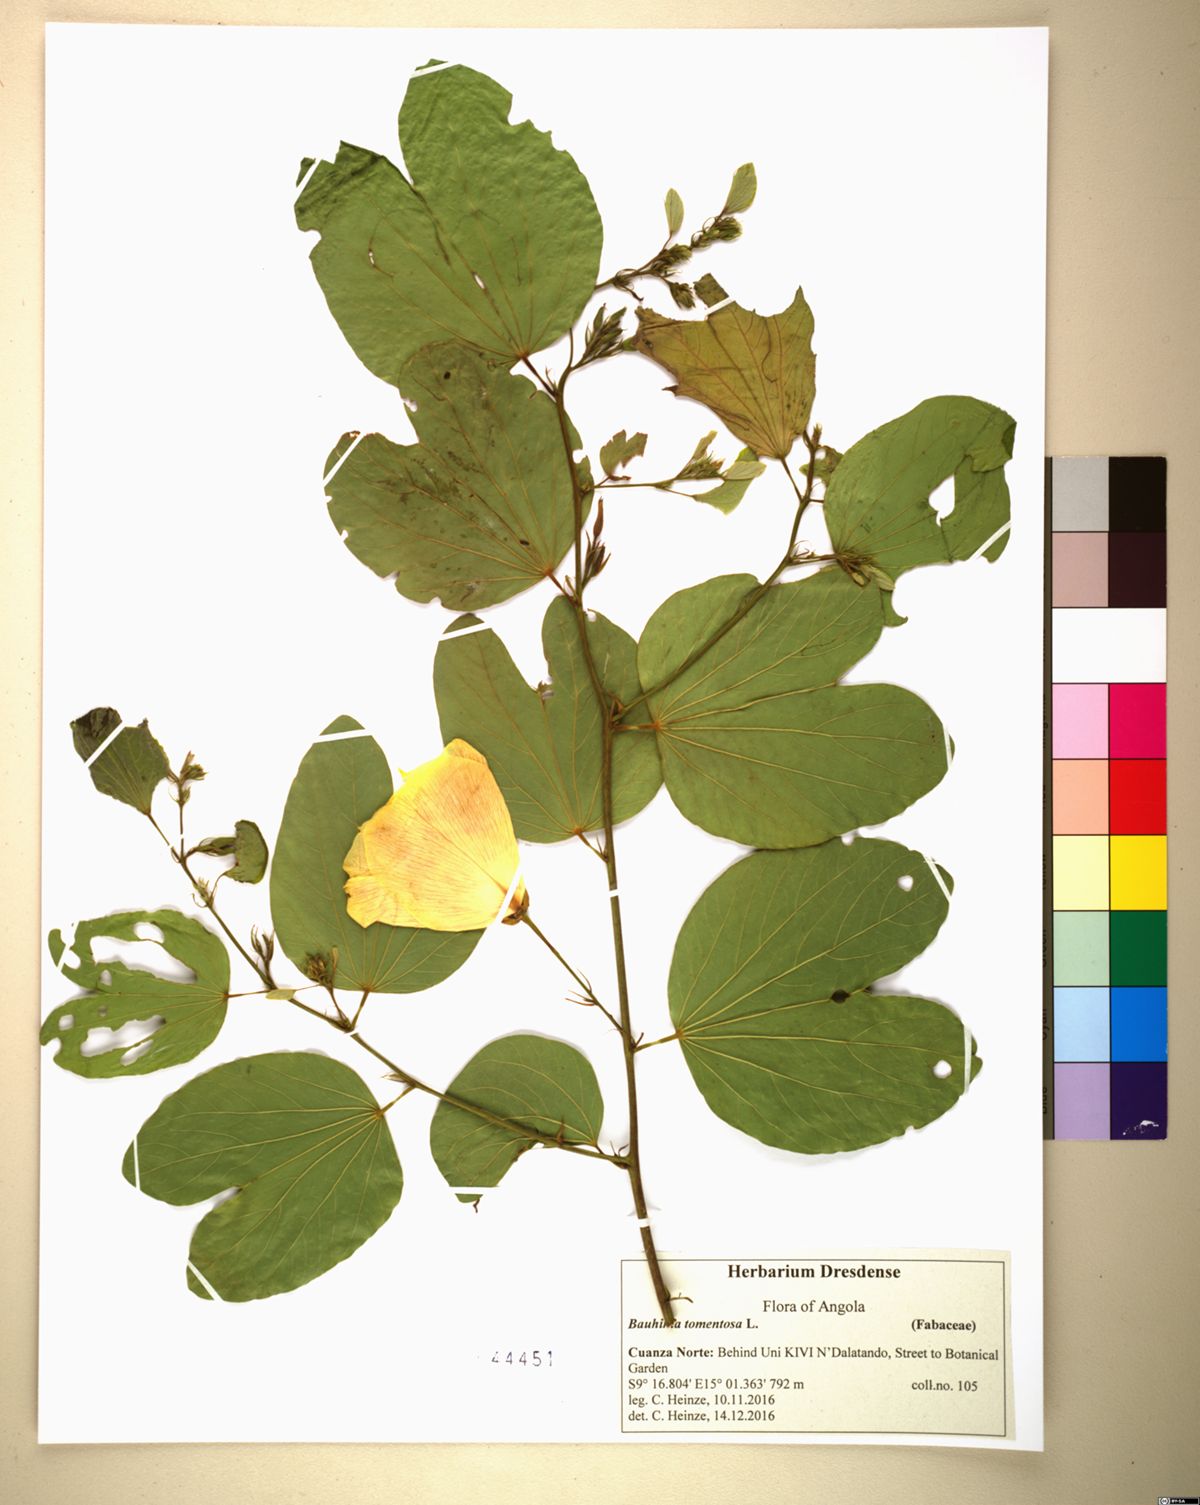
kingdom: Plantae
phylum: Tracheophyta
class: Magnoliopsida
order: Fabales
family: Fabaceae
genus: Bauhinia
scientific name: Bauhinia tomentosa
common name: Bell bauhinia
